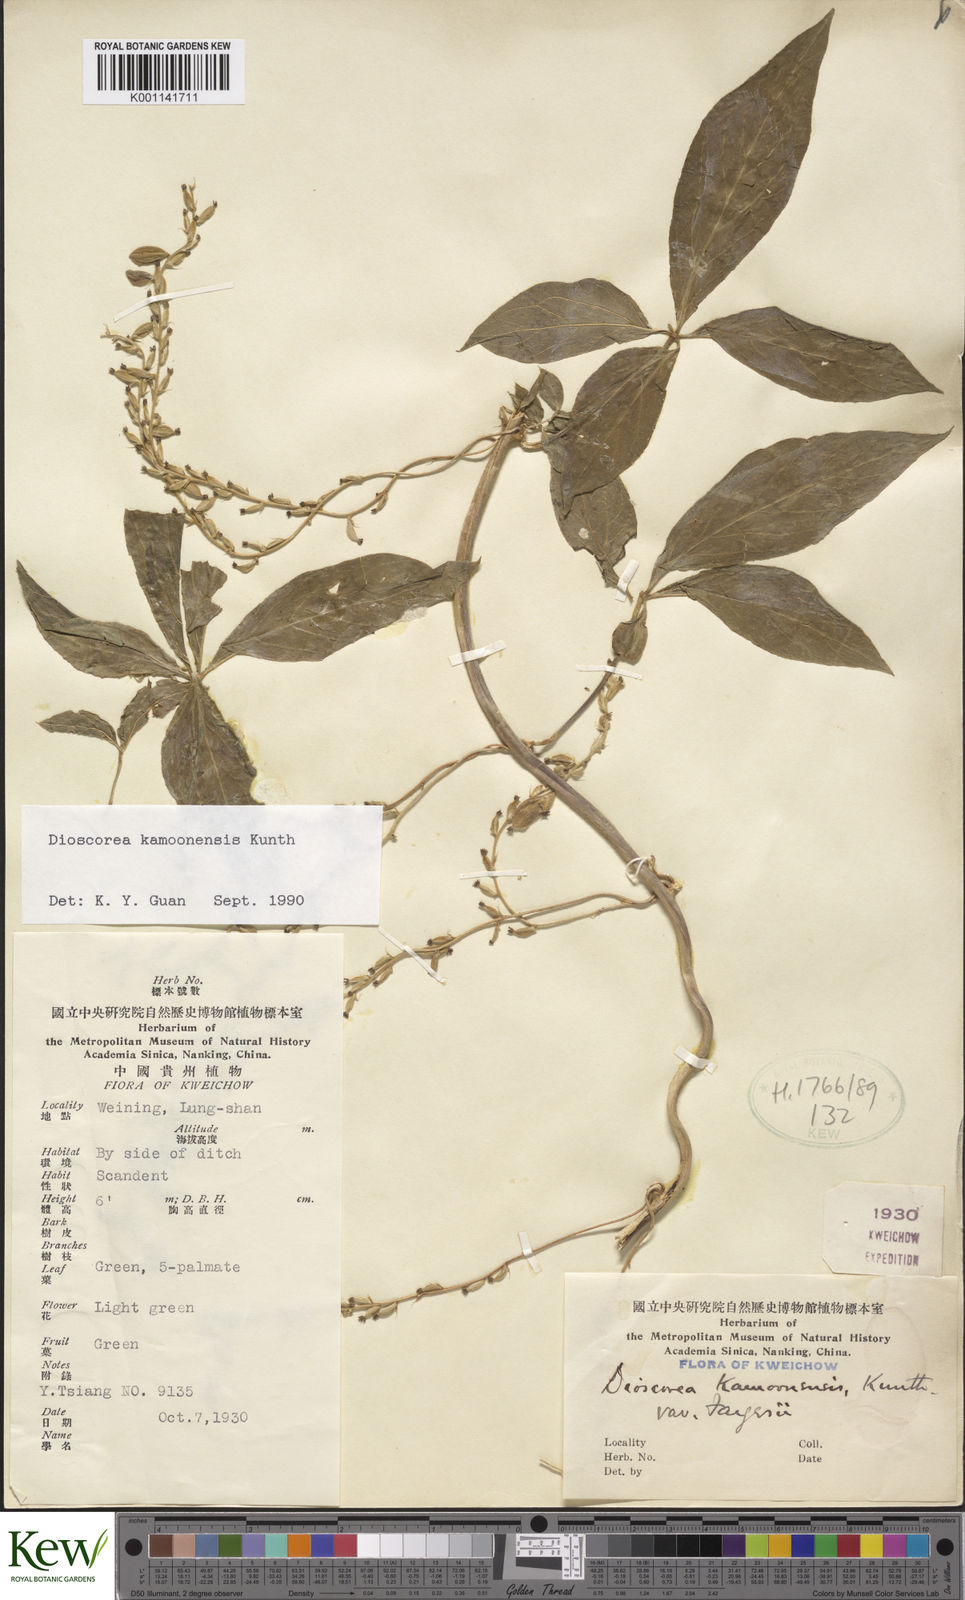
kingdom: Plantae
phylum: Tracheophyta
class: Liliopsida
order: Dioscoreales
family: Dioscoreaceae
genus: Dioscorea
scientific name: Dioscorea kamoonensis
